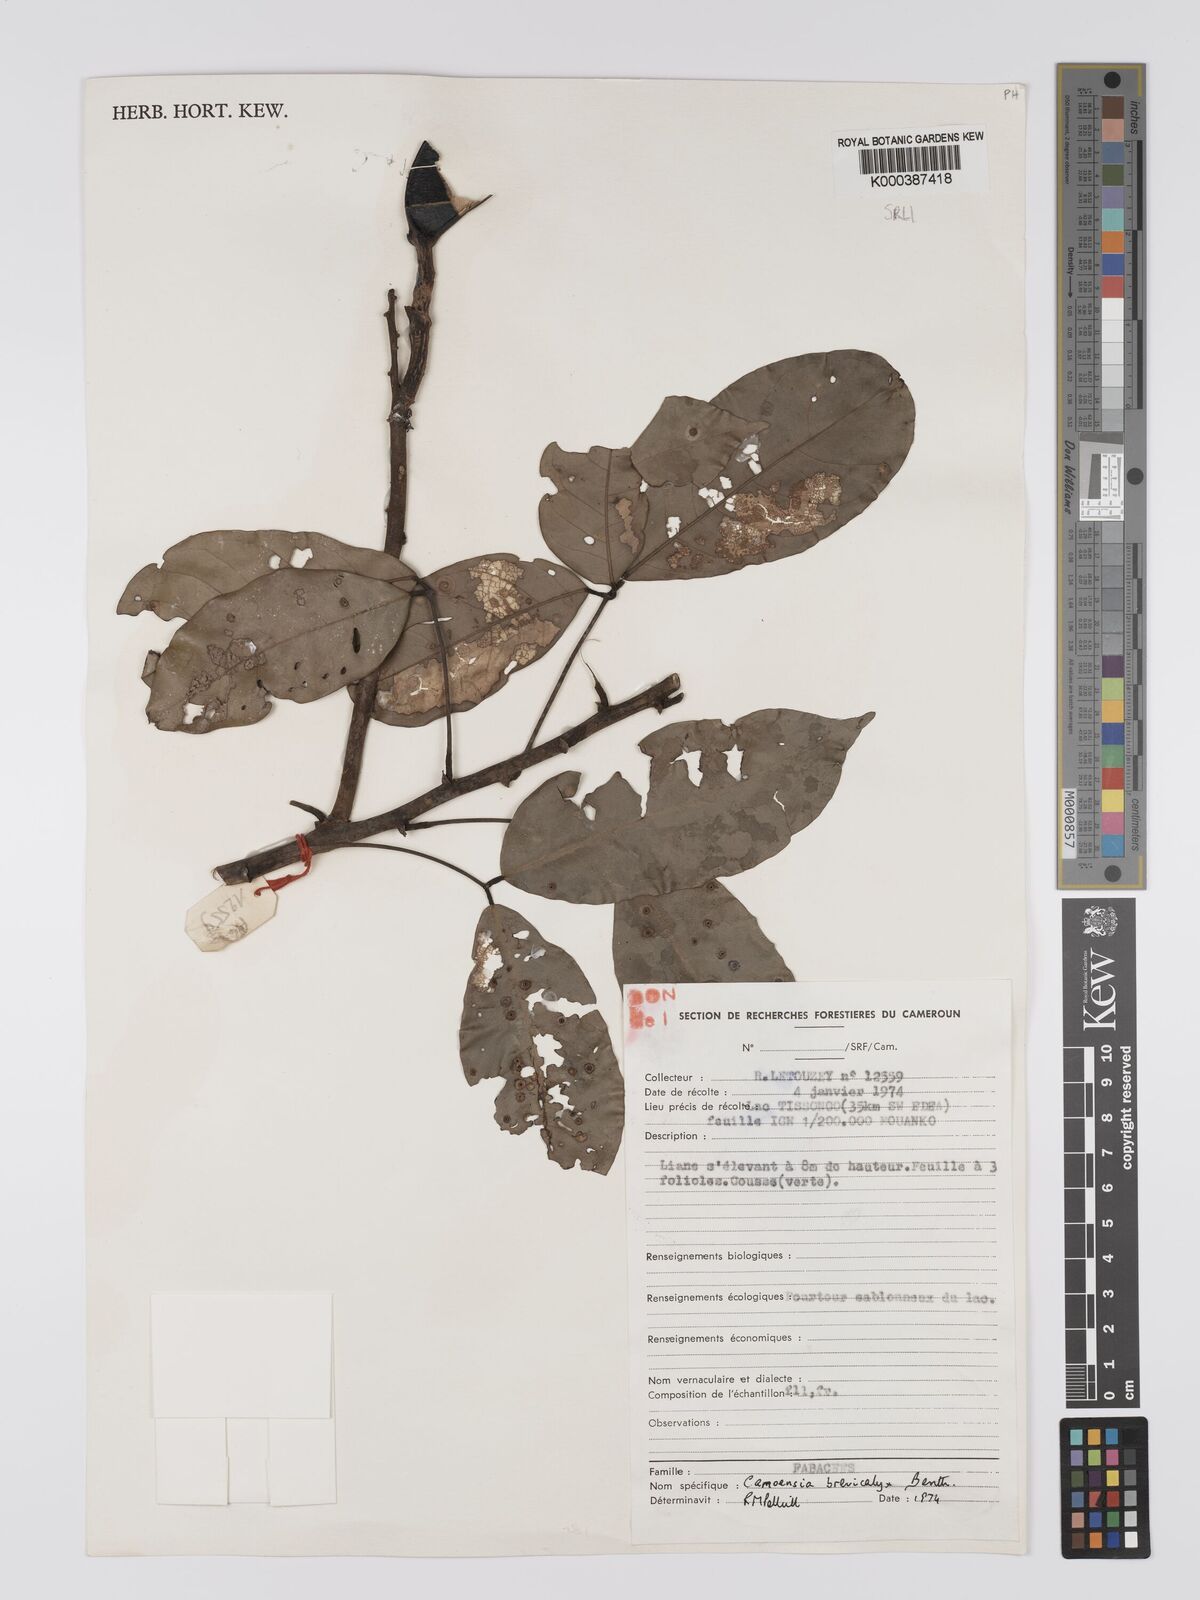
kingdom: Plantae
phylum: Tracheophyta
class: Magnoliopsida
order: Fabales
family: Fabaceae
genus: Camoensia
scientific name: Camoensia brevicalyx
